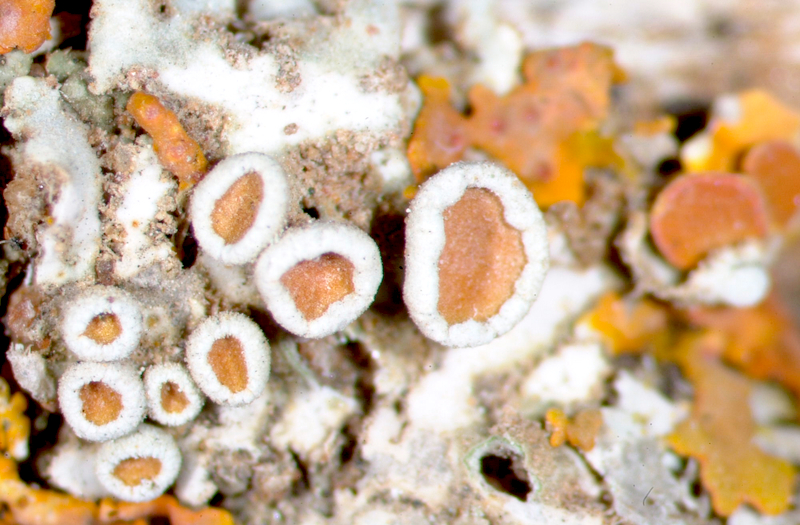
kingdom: Fungi
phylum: Ascomycota
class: Lecanoromycetes
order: Caliciales
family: Physciaceae
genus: Heterodermia
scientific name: Heterodermia
